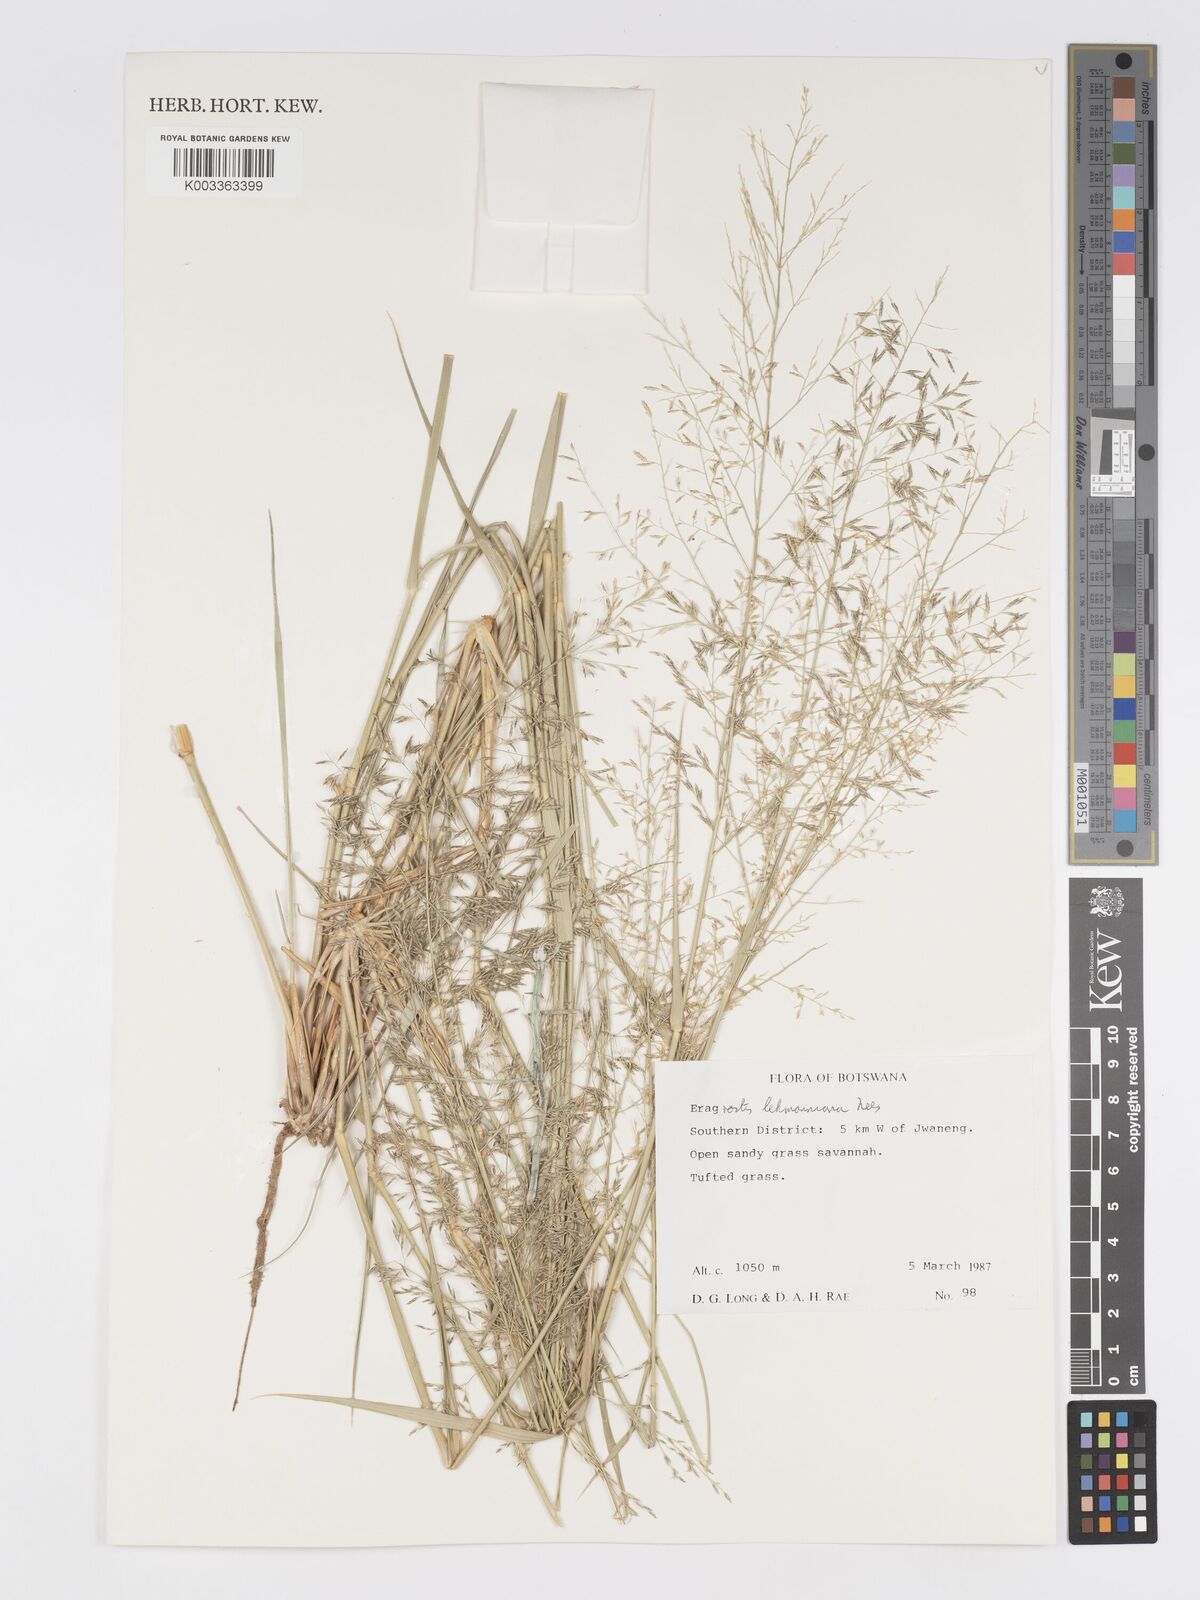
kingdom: Plantae
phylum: Tracheophyta
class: Liliopsida
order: Poales
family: Poaceae
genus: Eragrostis
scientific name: Eragrostis lehmanniana
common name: Lehmann lovegrass
